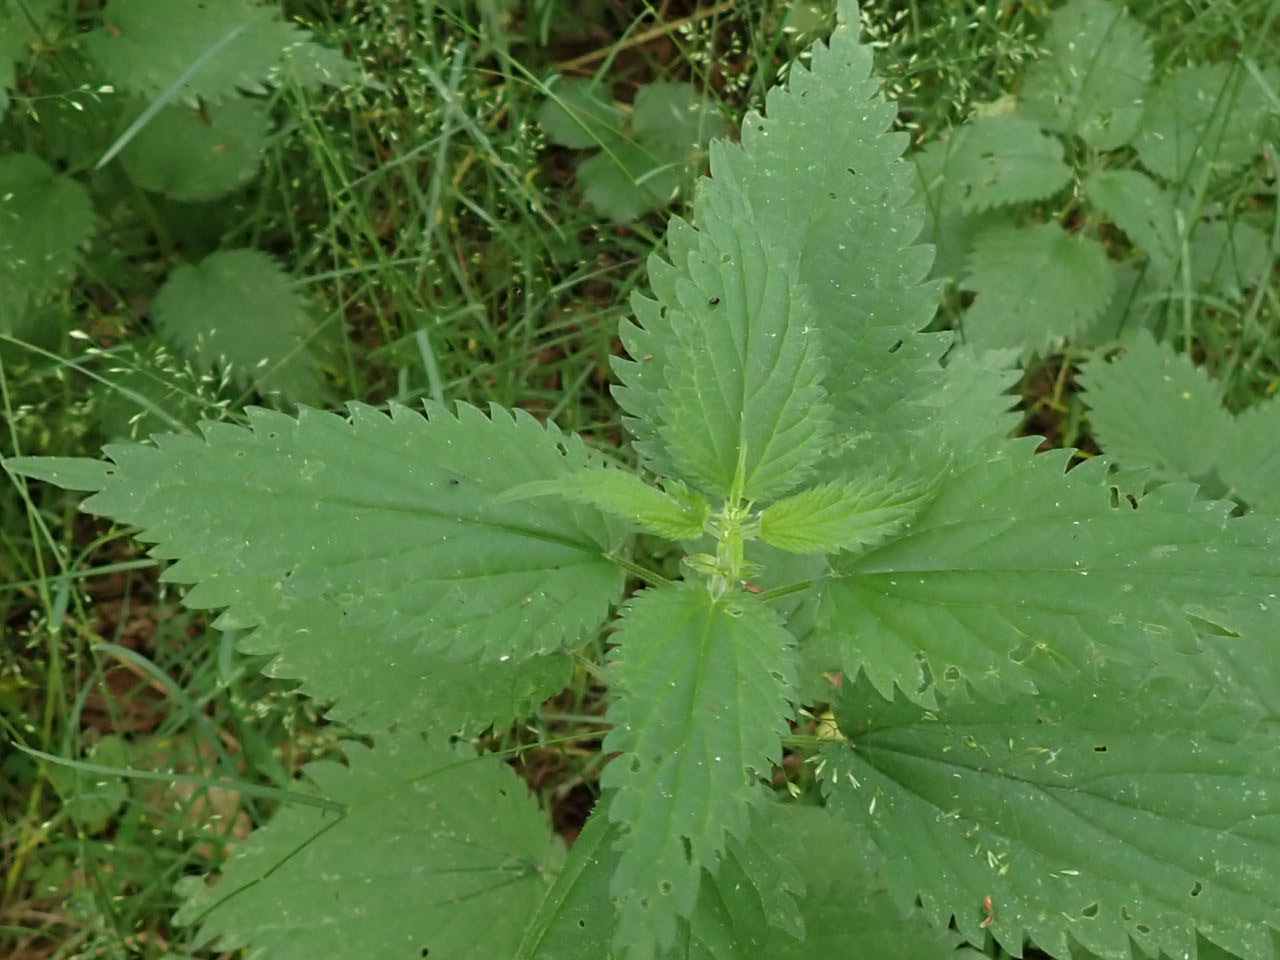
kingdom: Plantae
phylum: Tracheophyta
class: Magnoliopsida
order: Rosales
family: Urticaceae
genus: Urtica
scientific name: Urtica dioica
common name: Stor nælde
